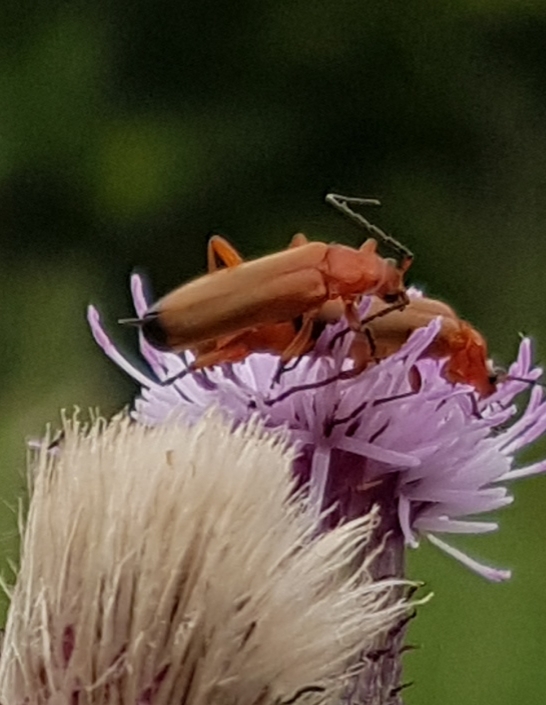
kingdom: Animalia
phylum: Arthropoda
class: Insecta
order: Coleoptera
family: Cantharidae
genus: Rhagonycha
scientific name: Rhagonycha fulva
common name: Præstebille
